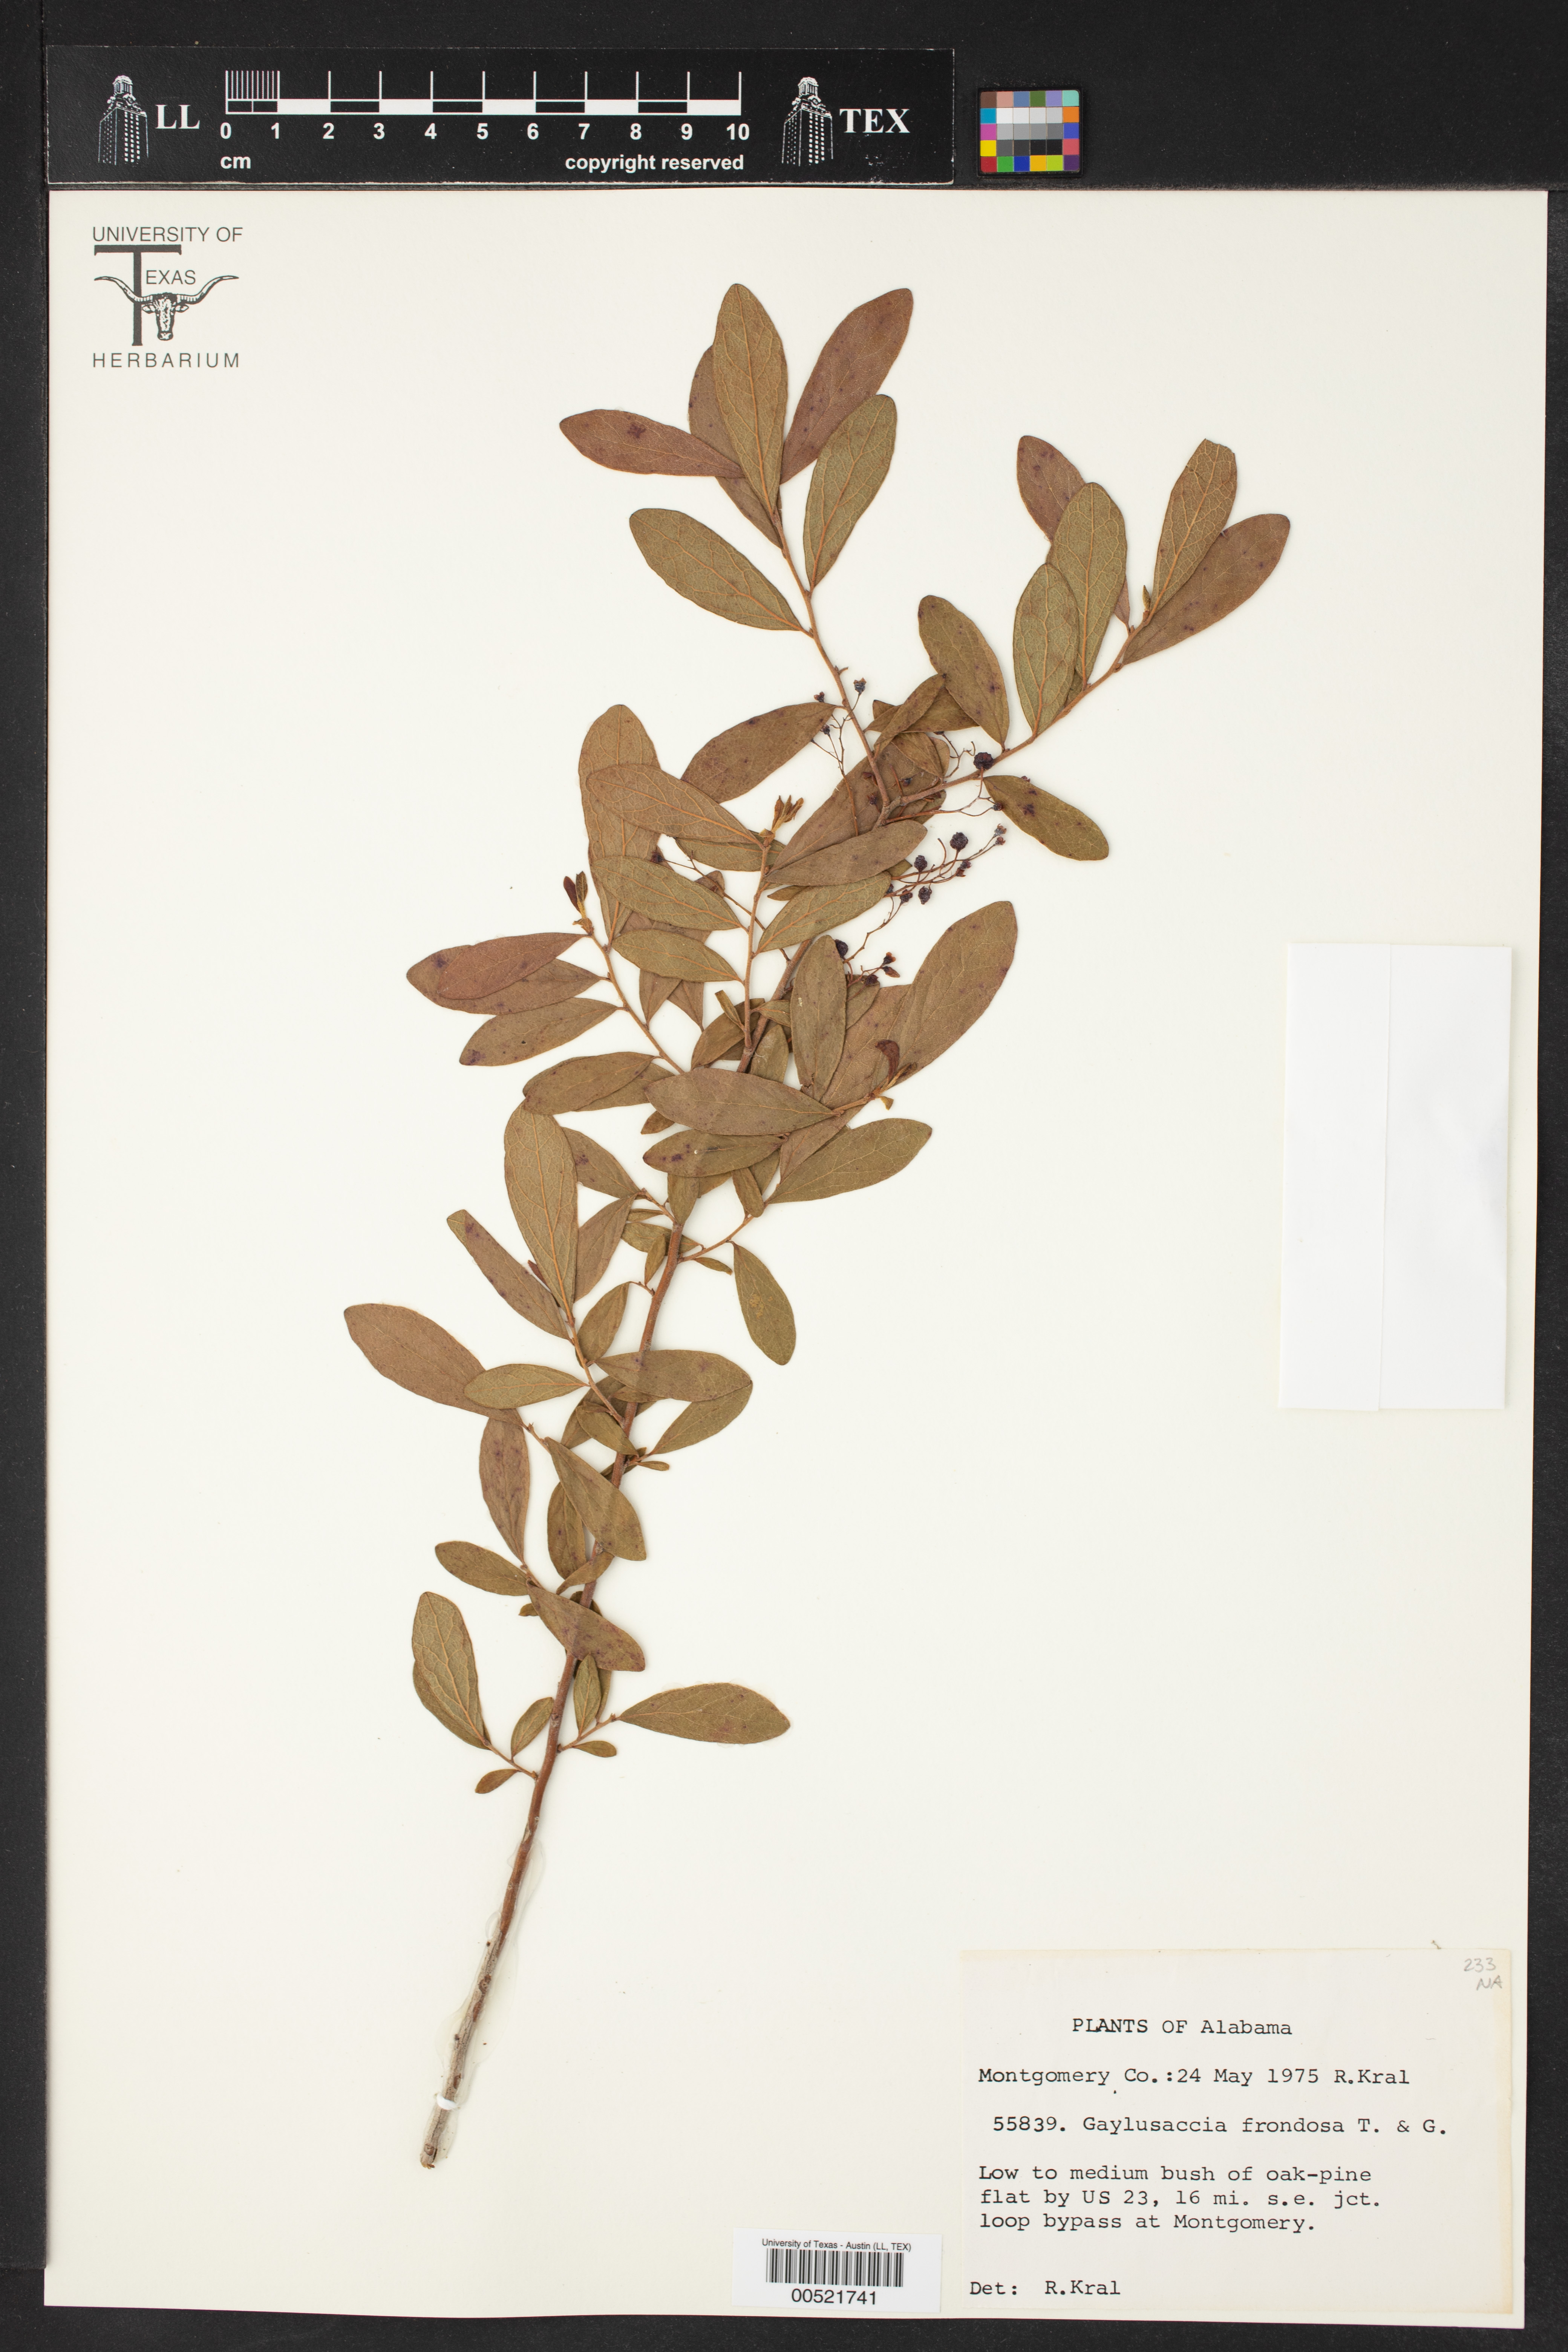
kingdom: Plantae
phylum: Tracheophyta
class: Magnoliopsida
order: Ericales
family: Ericaceae
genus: Gaylussacia
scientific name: Gaylussacia frondosa
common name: Dangleberry
